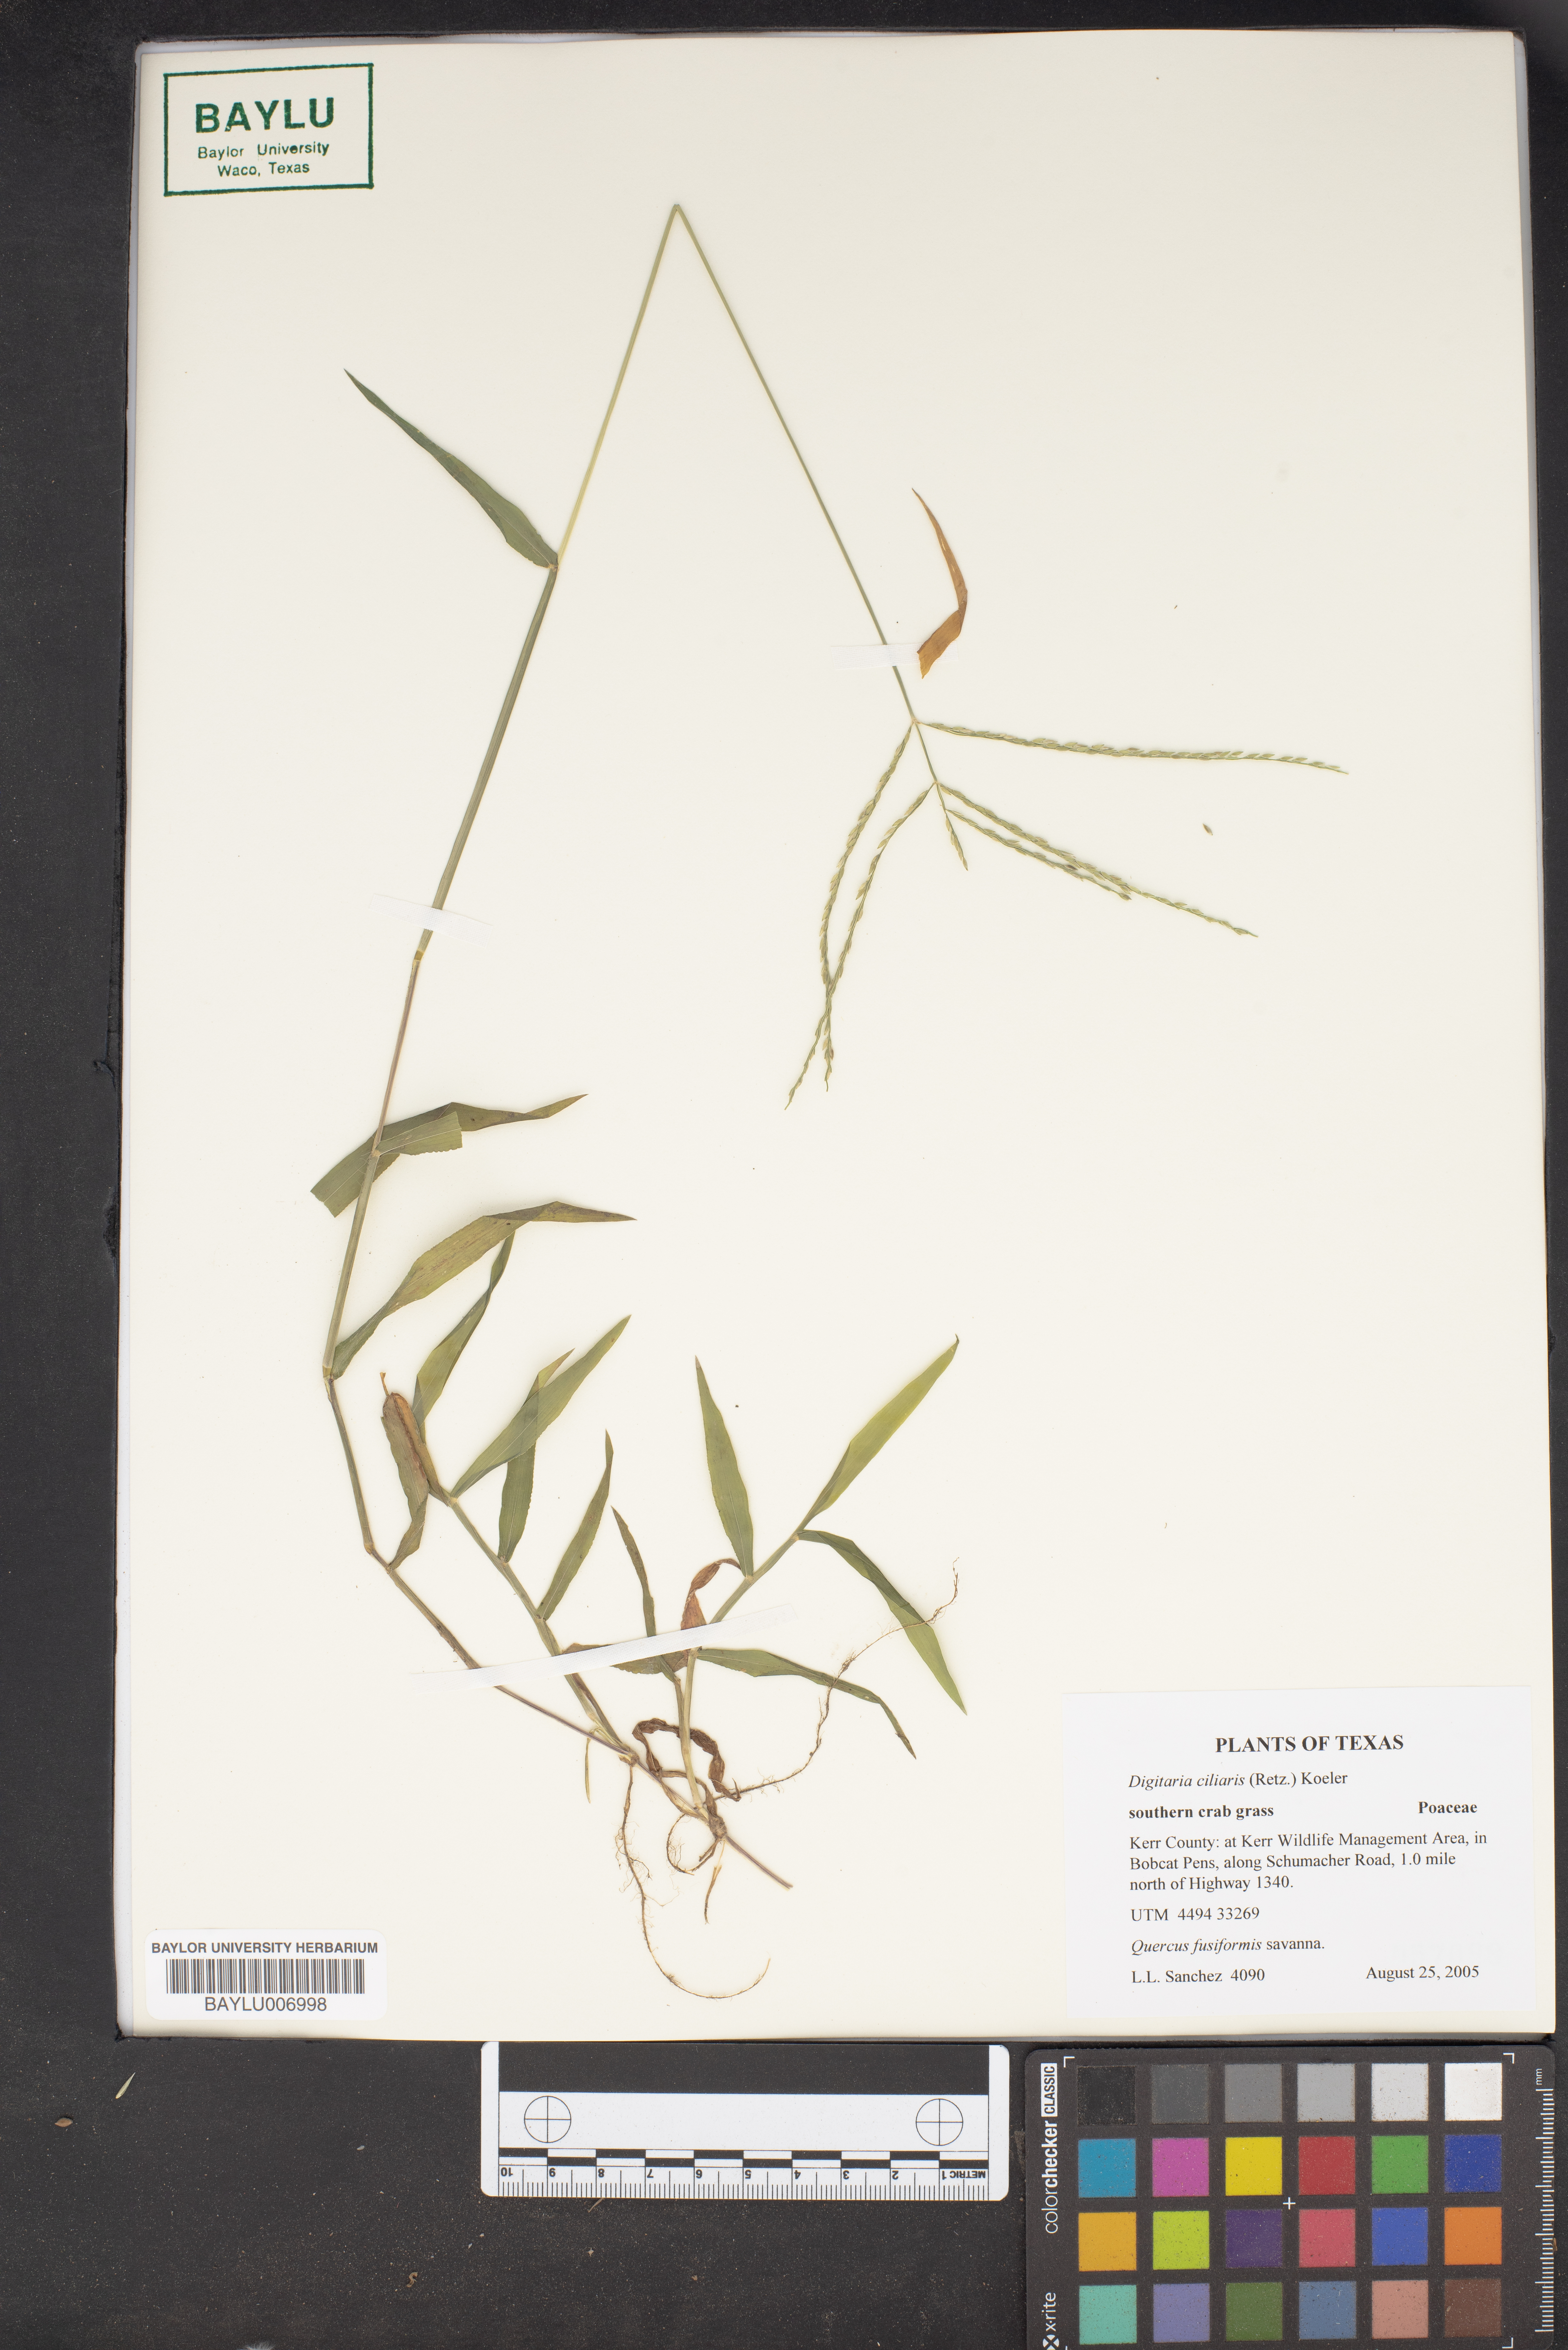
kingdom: Plantae
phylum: Tracheophyta
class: Liliopsida
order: Poales
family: Poaceae
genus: Digitaria
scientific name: Digitaria ciliaris
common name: Tropical finger-grass
